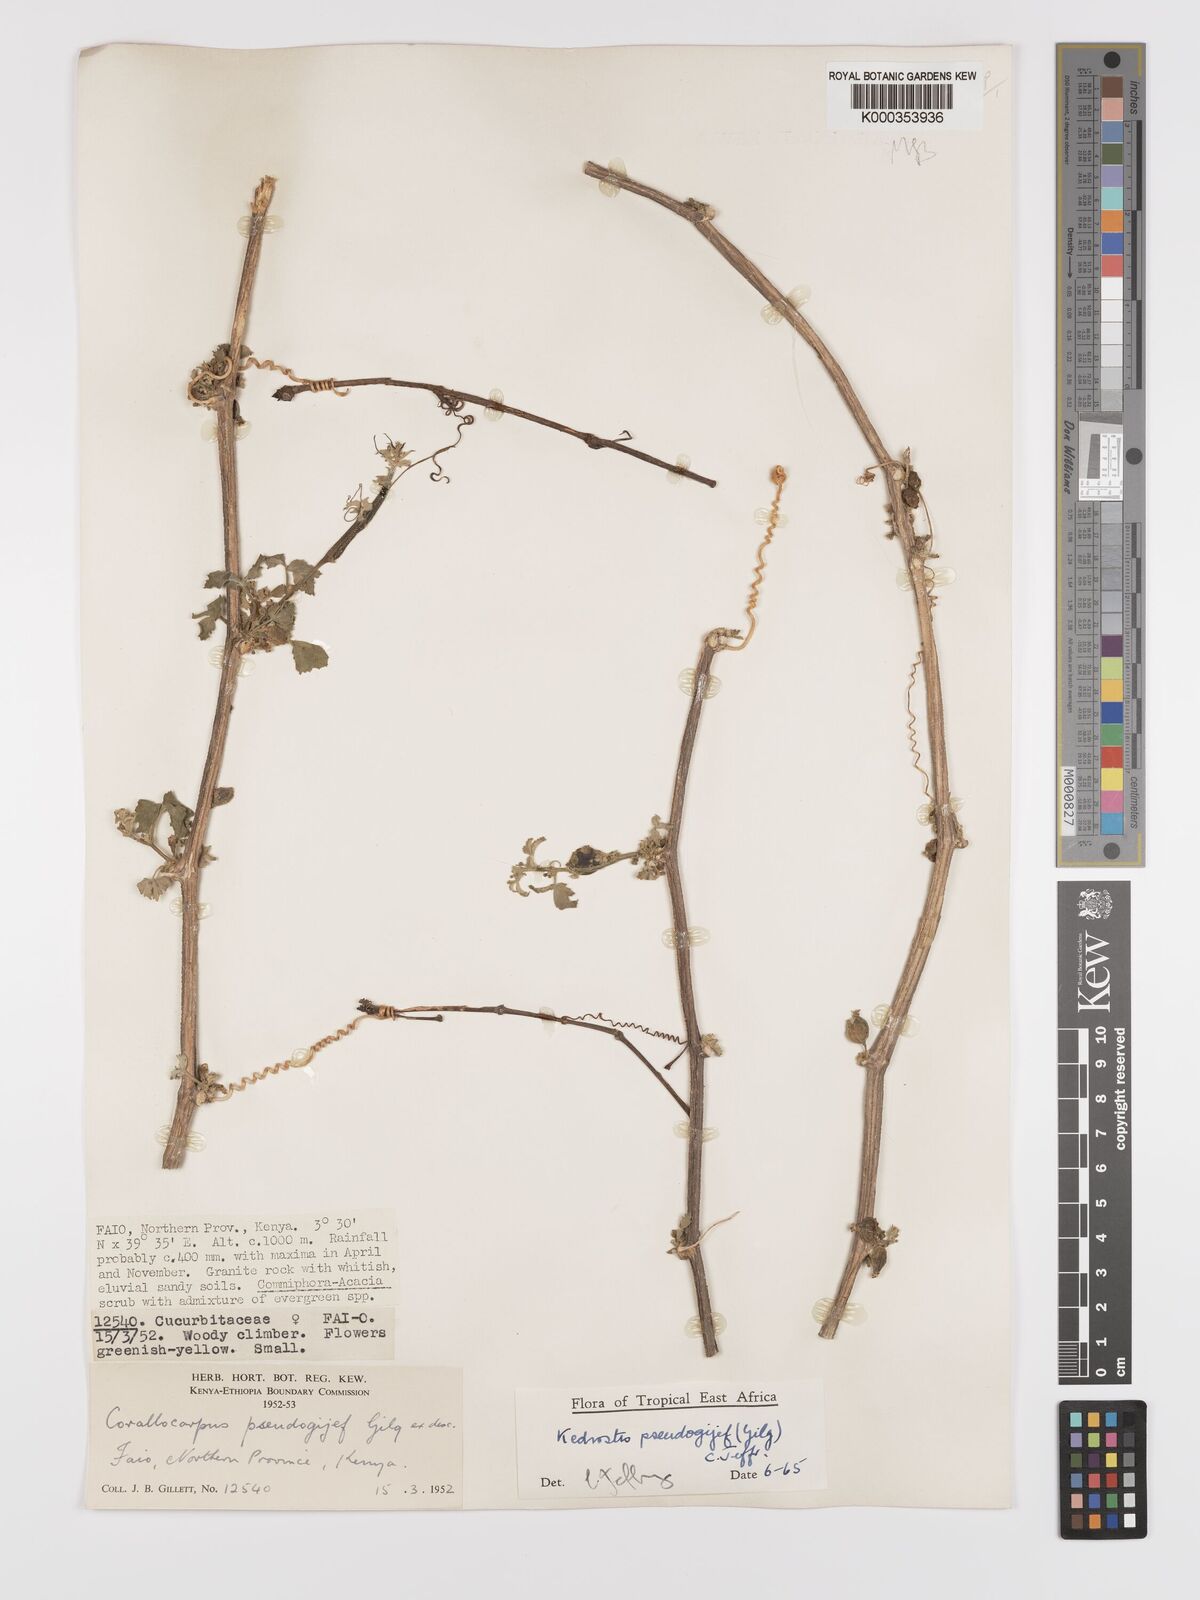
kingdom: Plantae
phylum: Tracheophyta
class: Magnoliopsida
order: Cucurbitales
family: Cucurbitaceae
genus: Kedrostis
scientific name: Kedrostis pseudogijef
